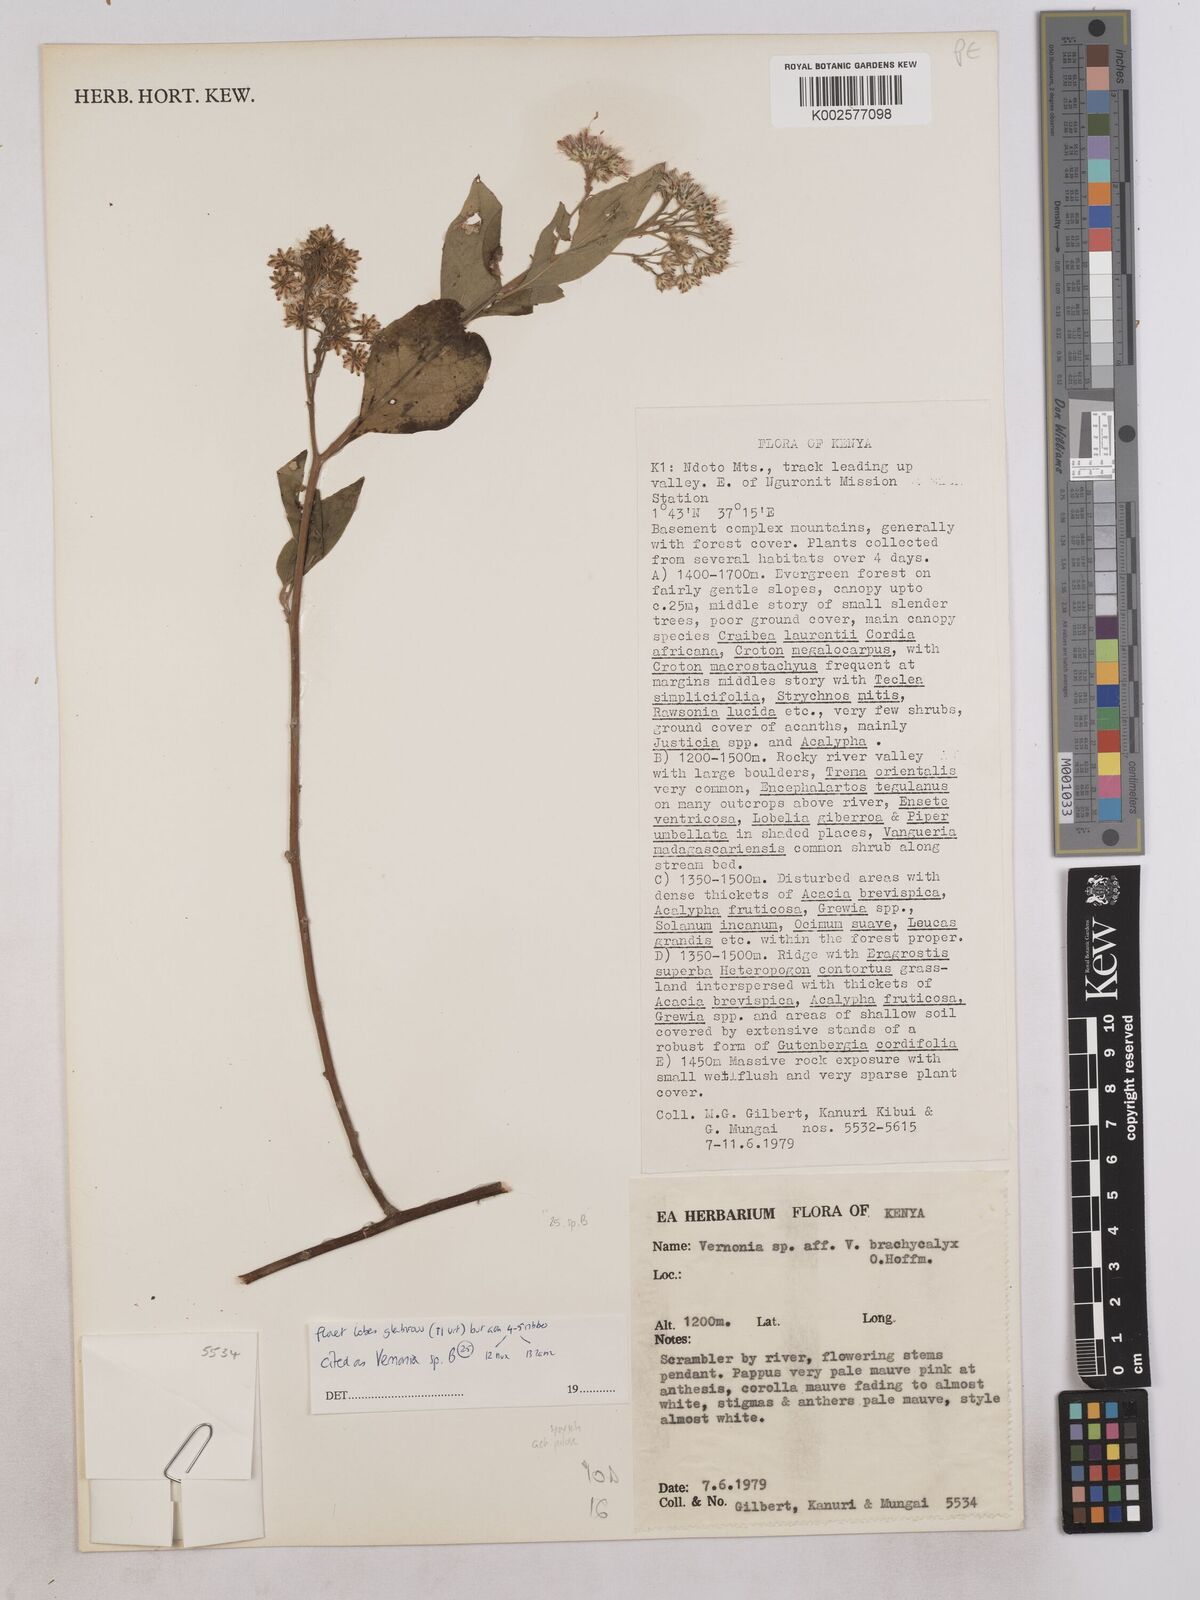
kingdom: Plantae
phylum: Tracheophyta
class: Magnoliopsida
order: Asterales
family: Asteraceae
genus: Vernonia
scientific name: Vernonia
